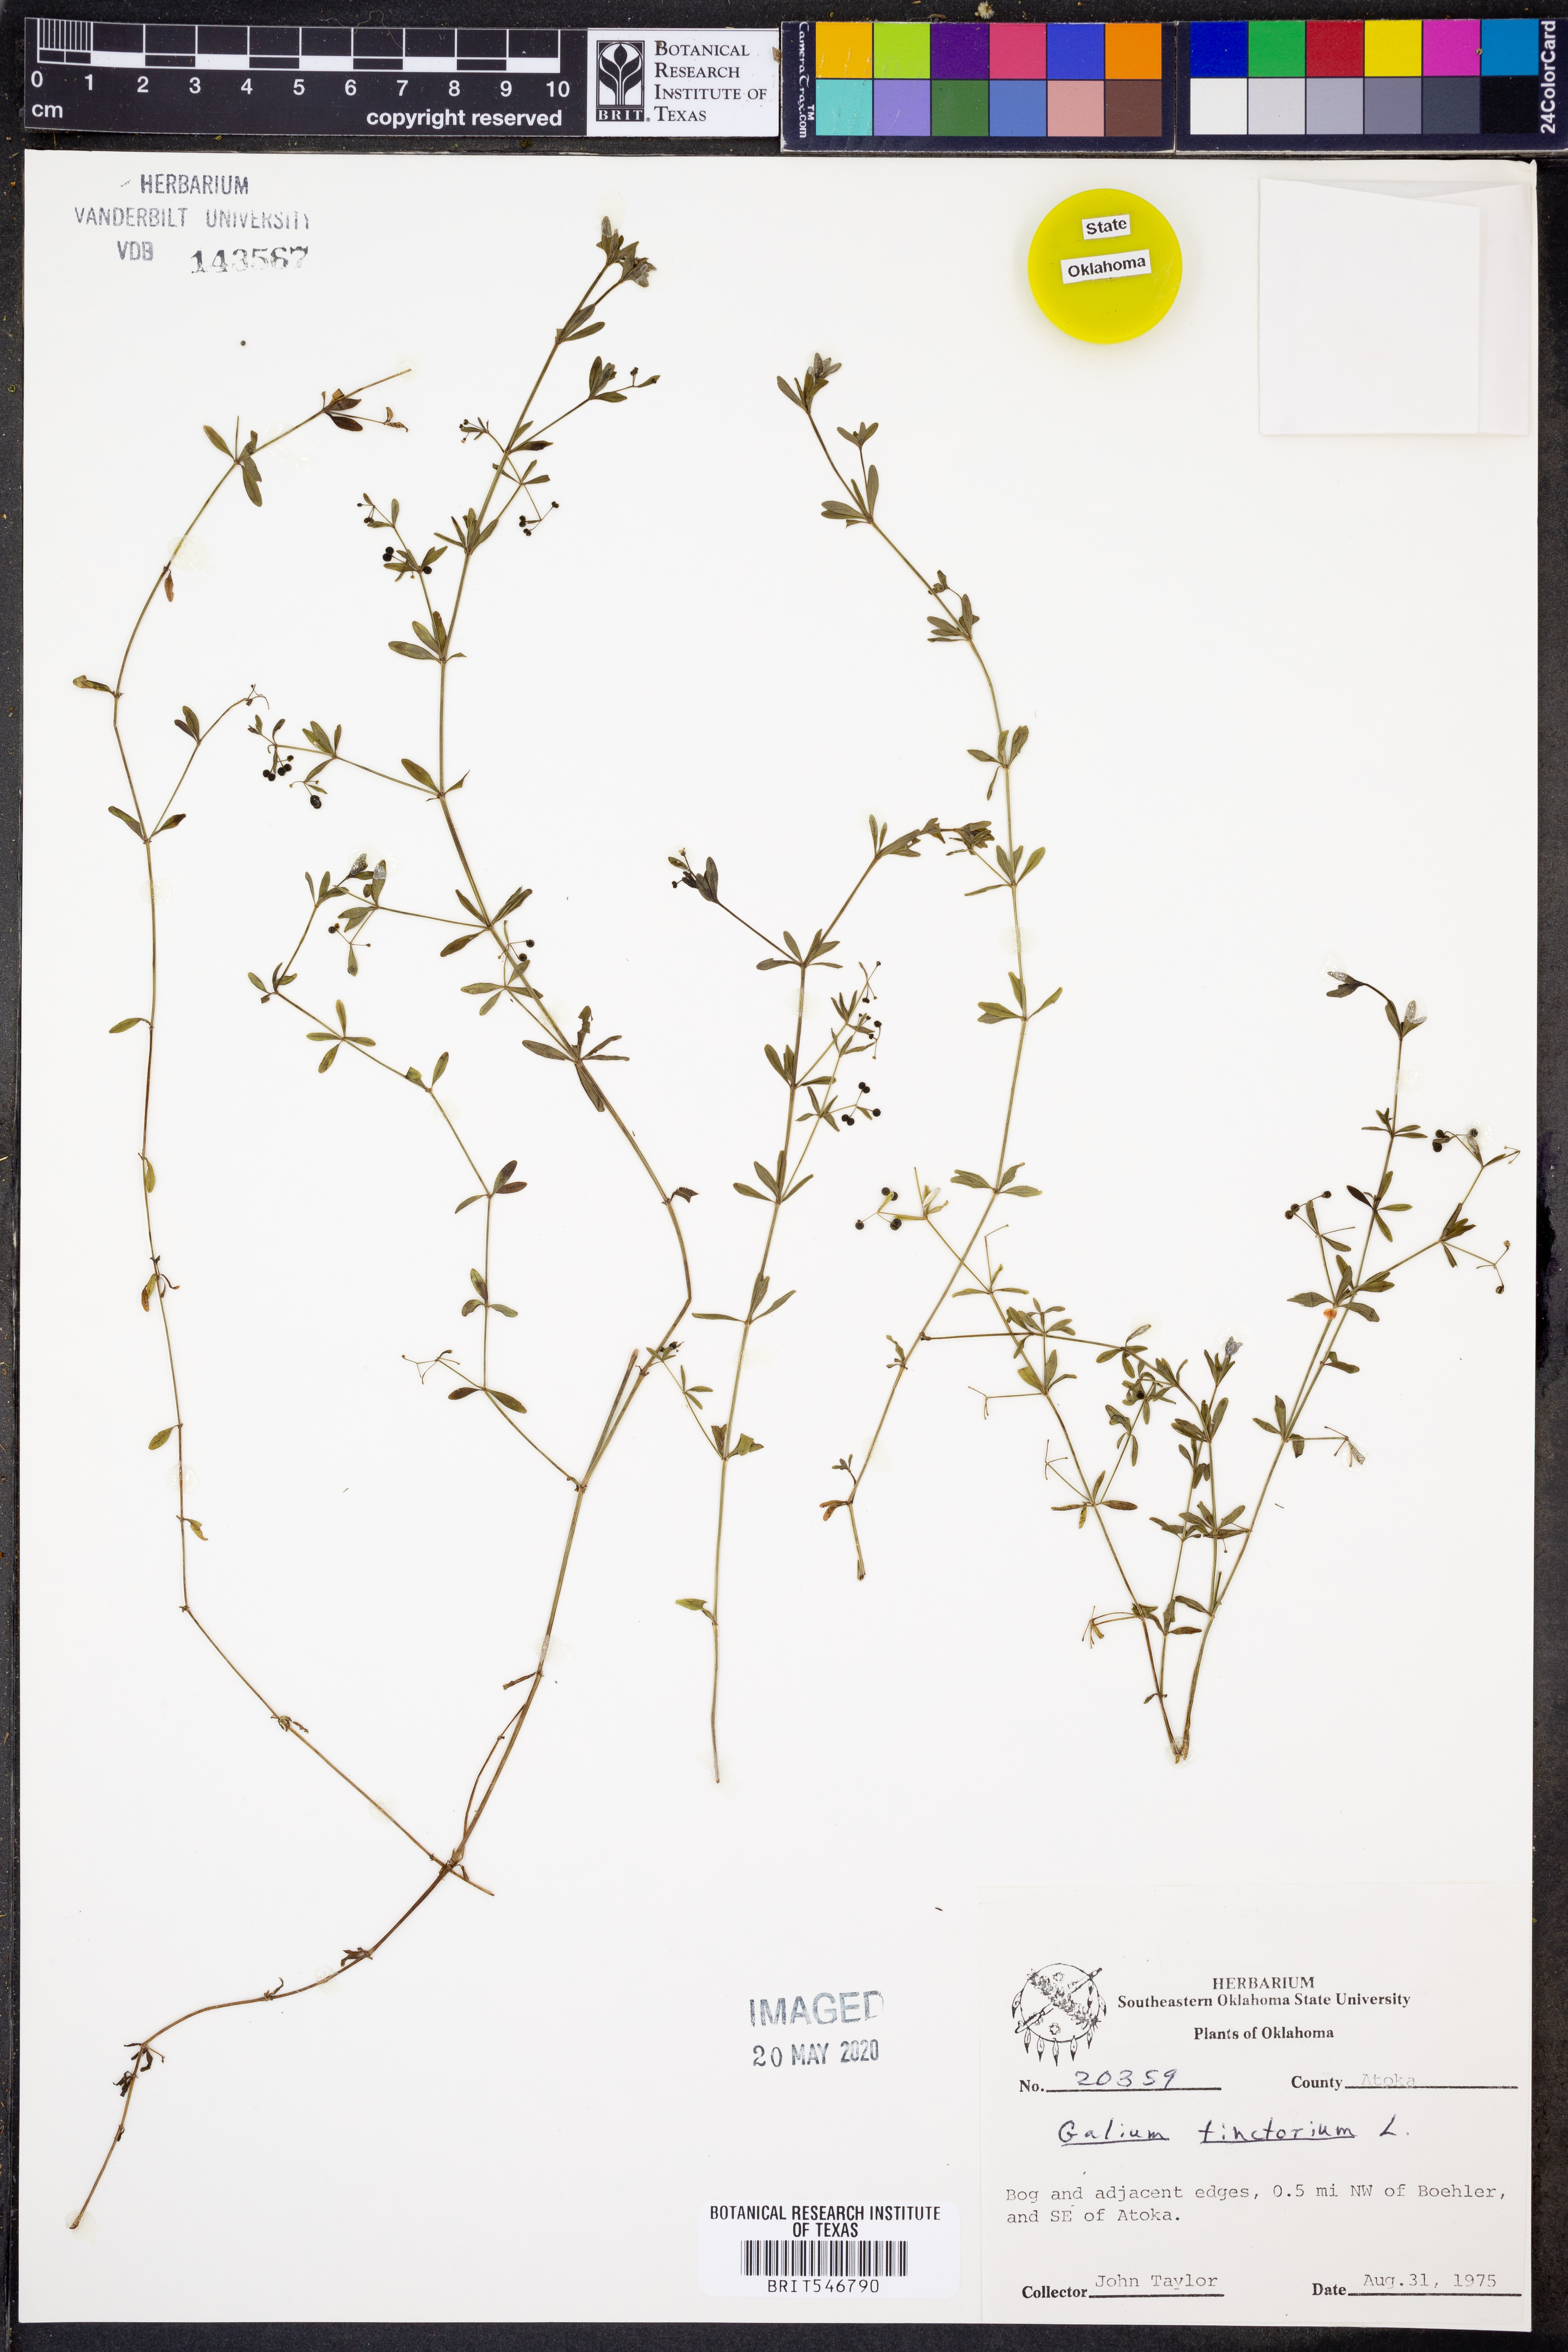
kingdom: Plantae
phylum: Tracheophyta
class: Magnoliopsida
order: Gentianales
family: Rubiaceae
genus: Asperula
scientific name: Asperula tinctoria
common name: Dyer's woodruff
